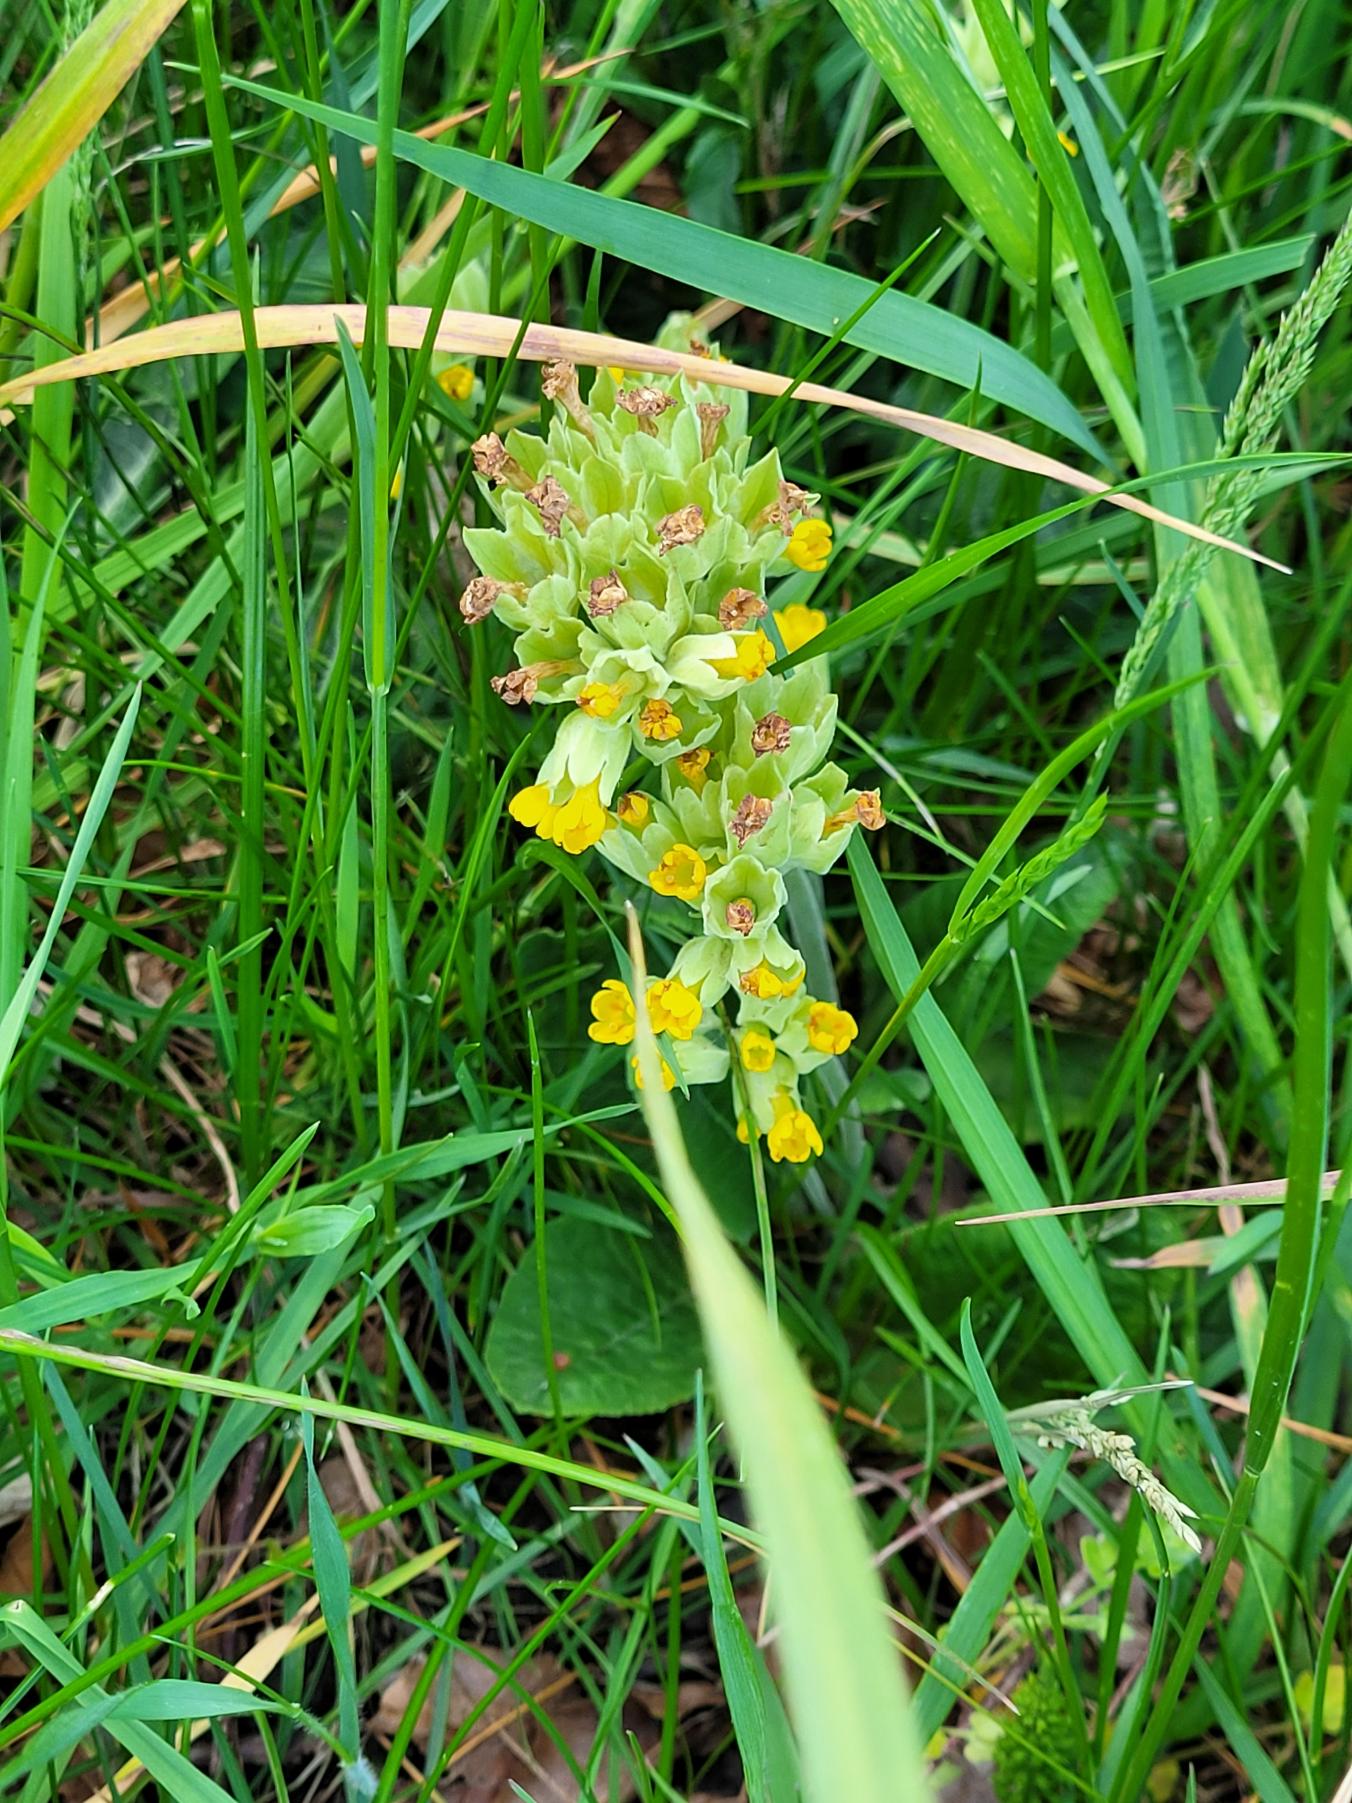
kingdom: Plantae
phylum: Tracheophyta
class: Magnoliopsida
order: Ericales
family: Primulaceae
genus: Primula
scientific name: Primula veris
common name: Hulkravet kodriver
